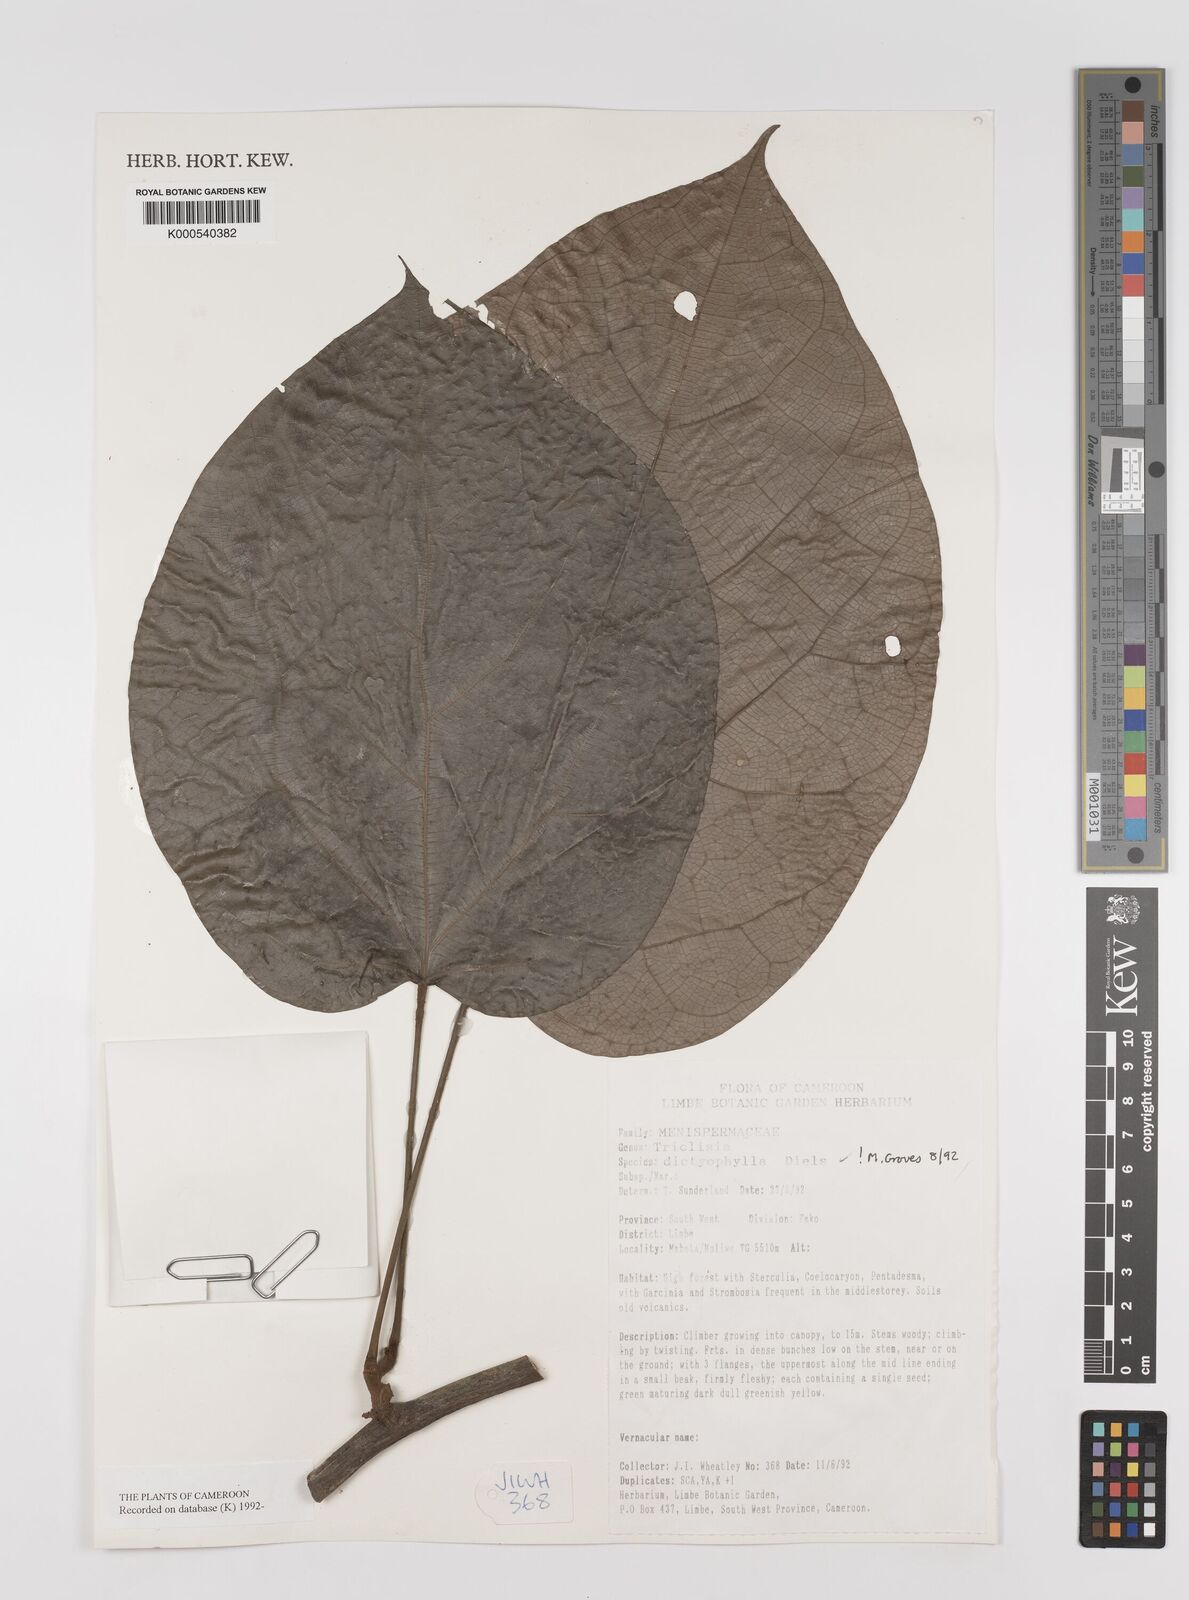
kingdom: Plantae
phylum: Tracheophyta
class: Magnoliopsida
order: Ranunculales
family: Menispermaceae
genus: Triclisia
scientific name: Triclisia dictyophylla
